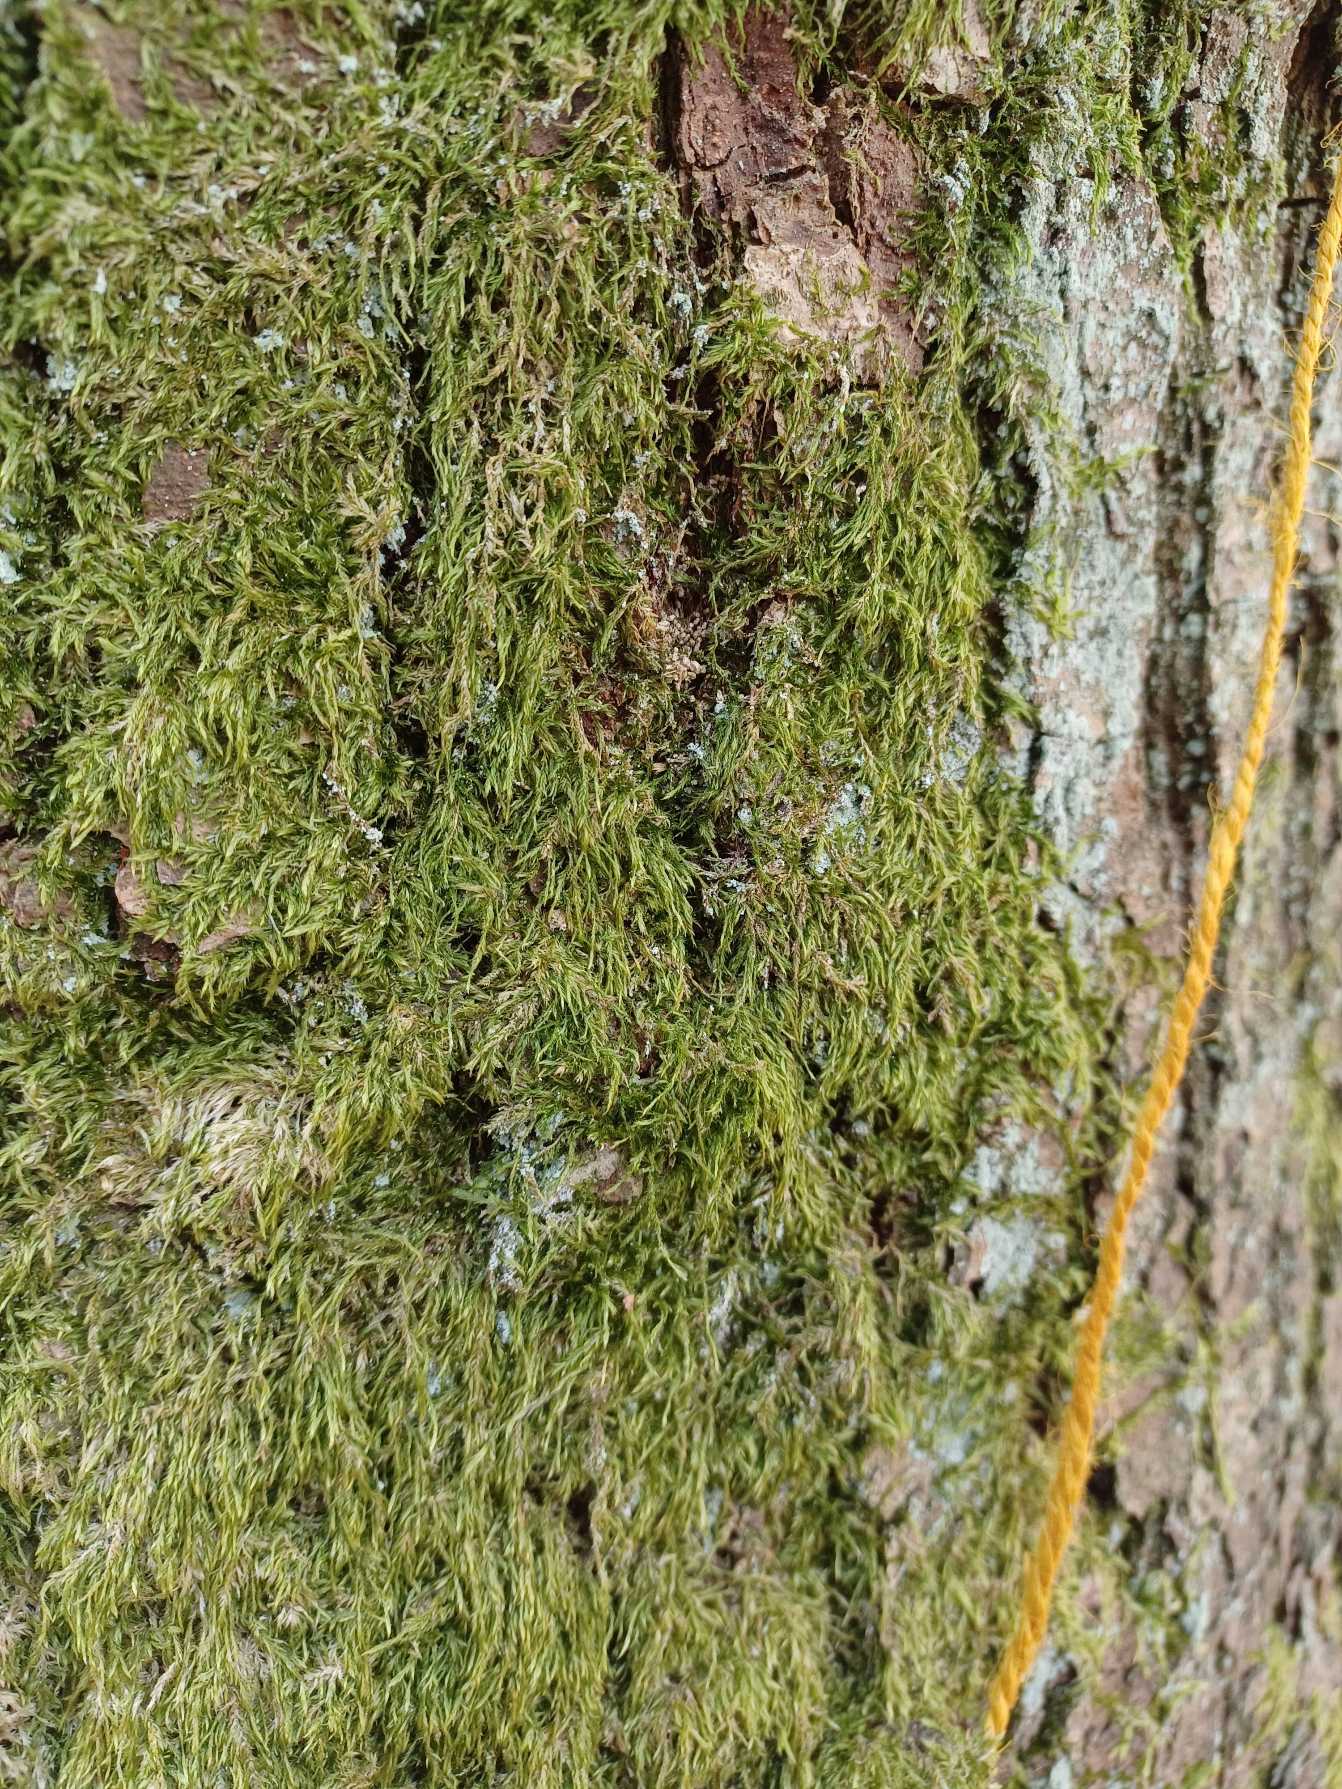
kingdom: Plantae
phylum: Bryophyta
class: Bryopsida
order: Hypnales
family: Hypnaceae
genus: Hypnum
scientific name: Hypnum
